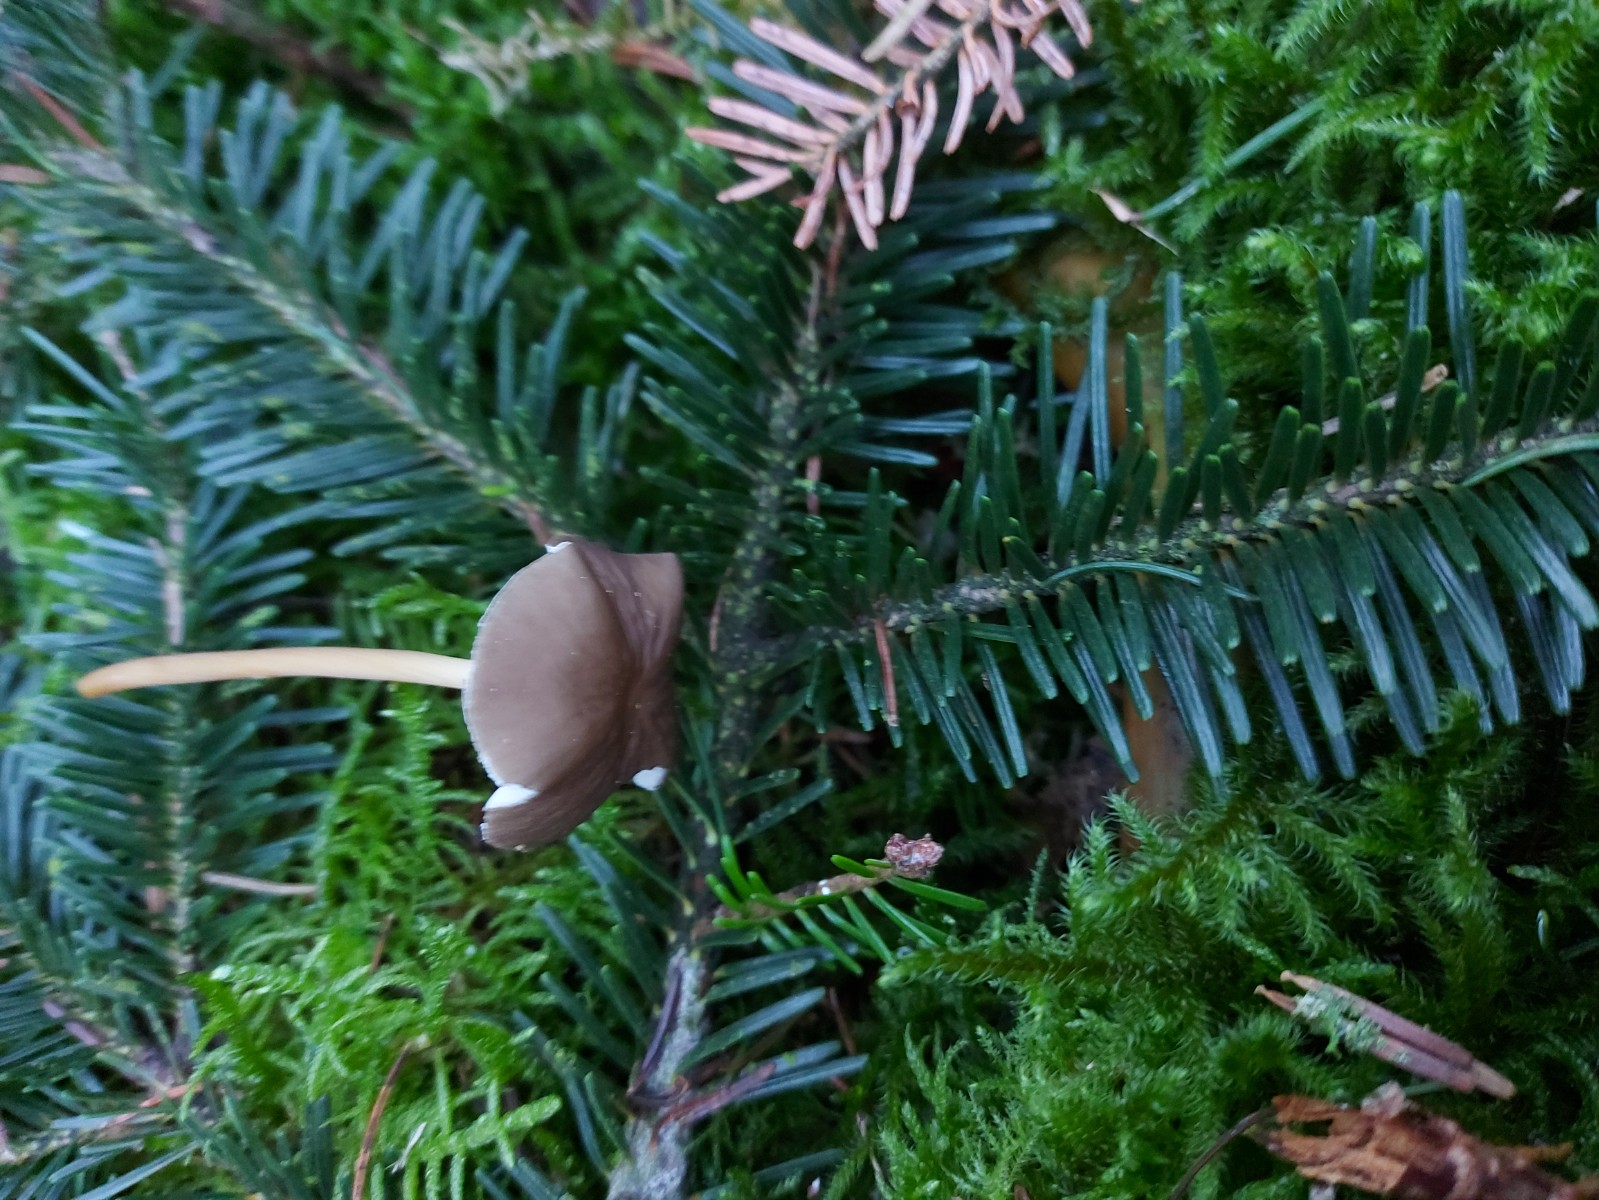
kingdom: Fungi
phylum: Basidiomycota
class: Agaricomycetes
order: Agaricales
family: Physalacriaceae
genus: Strobilurus
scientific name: Strobilurus esculentus
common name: gran-koglehat
